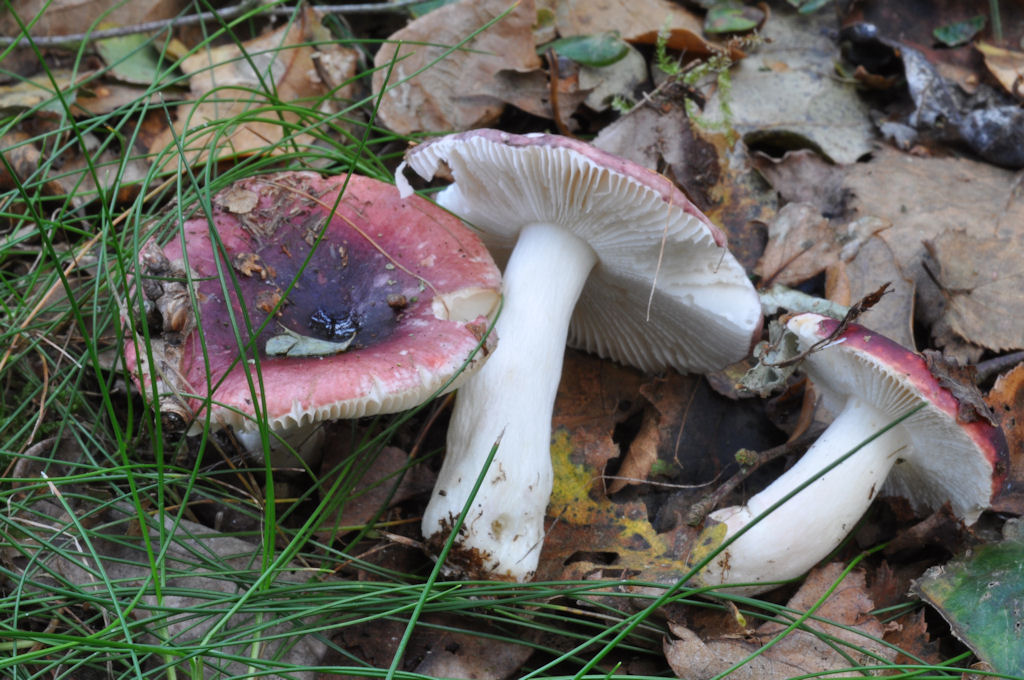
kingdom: Fungi
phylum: Basidiomycota
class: Agaricomycetes
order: Russulales
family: Russulaceae
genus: Russula
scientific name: Russula fragilis
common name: Fragile brittlegill
